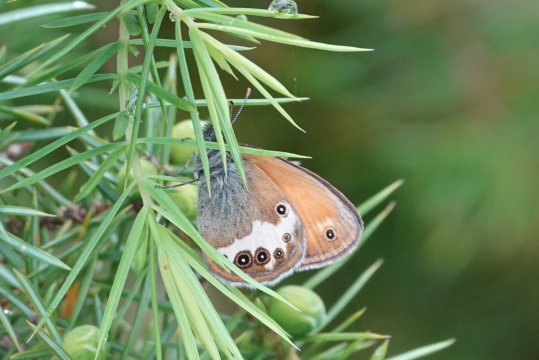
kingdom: Animalia
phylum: Arthropoda
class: Insecta
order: Lepidoptera
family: Nymphalidae
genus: Coenonympha
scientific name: Coenonympha arcania
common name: Pearly Heath
